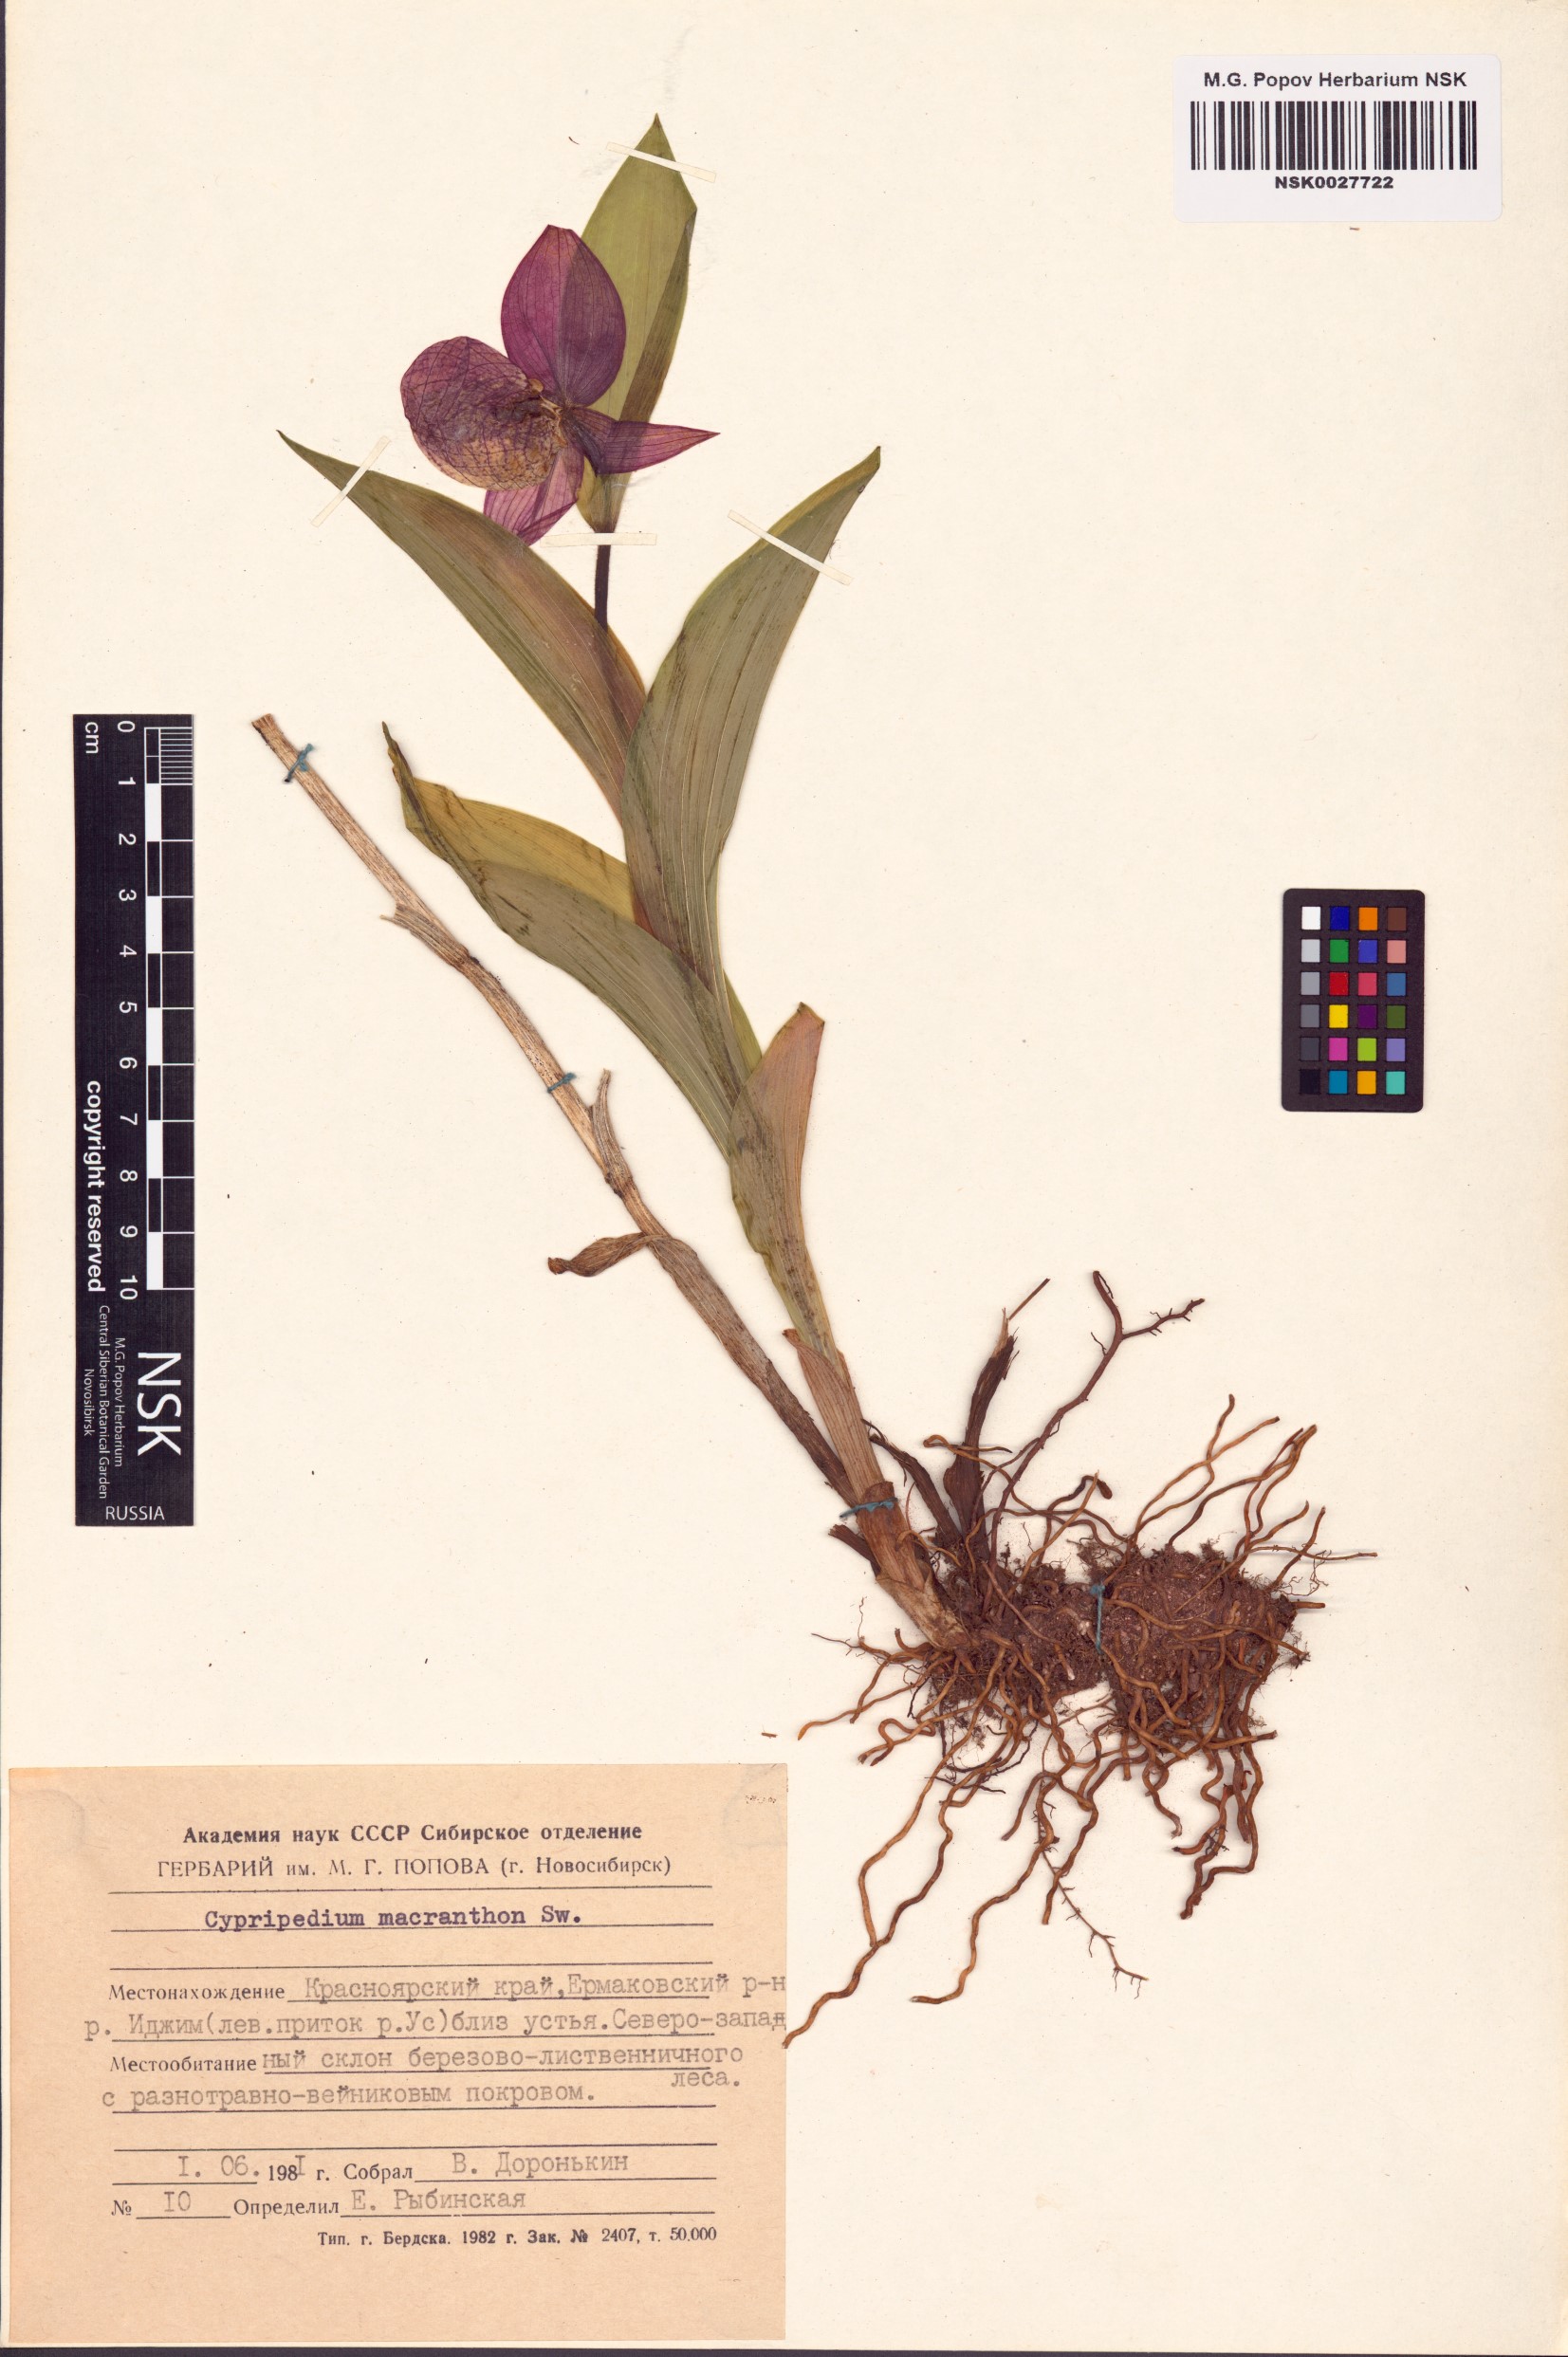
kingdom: Plantae
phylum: Tracheophyta
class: Liliopsida
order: Asparagales
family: Orchidaceae
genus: Cypripedium
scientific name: Cypripedium macranthos
